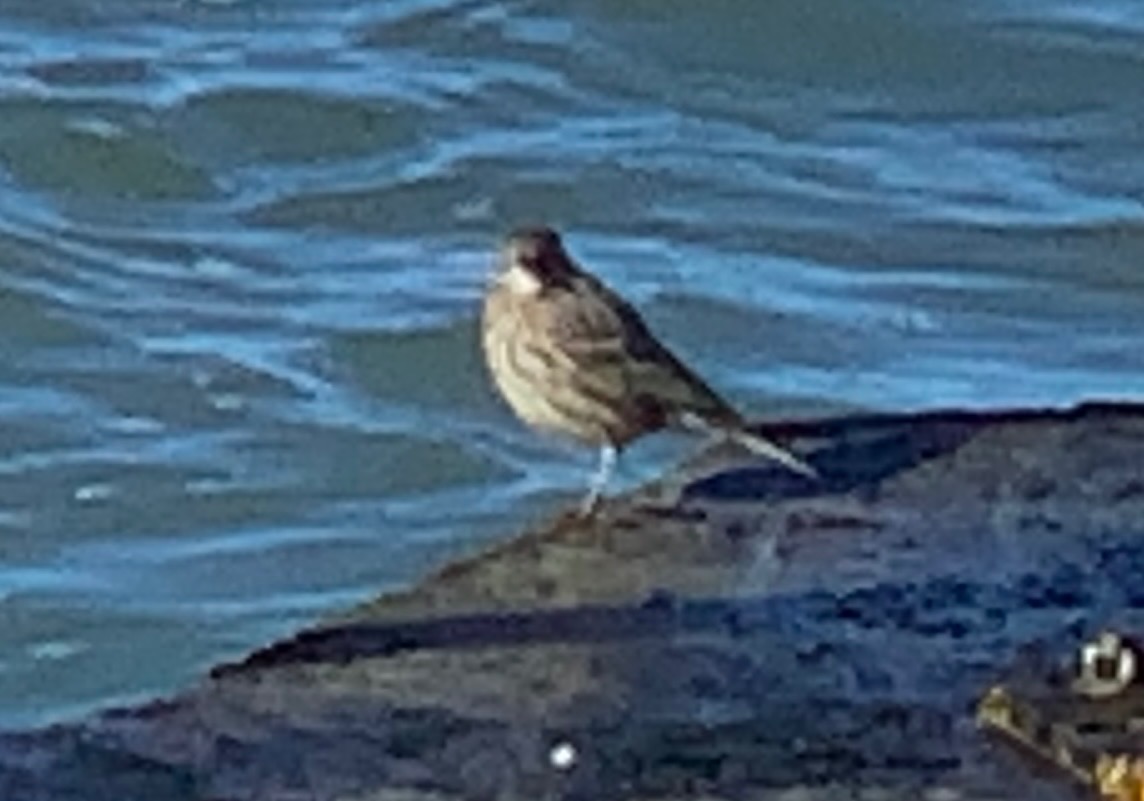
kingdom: Animalia
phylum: Chordata
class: Aves
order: Passeriformes
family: Motacillidae
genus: Anthus
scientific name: Anthus petrosus
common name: Skærpiber
